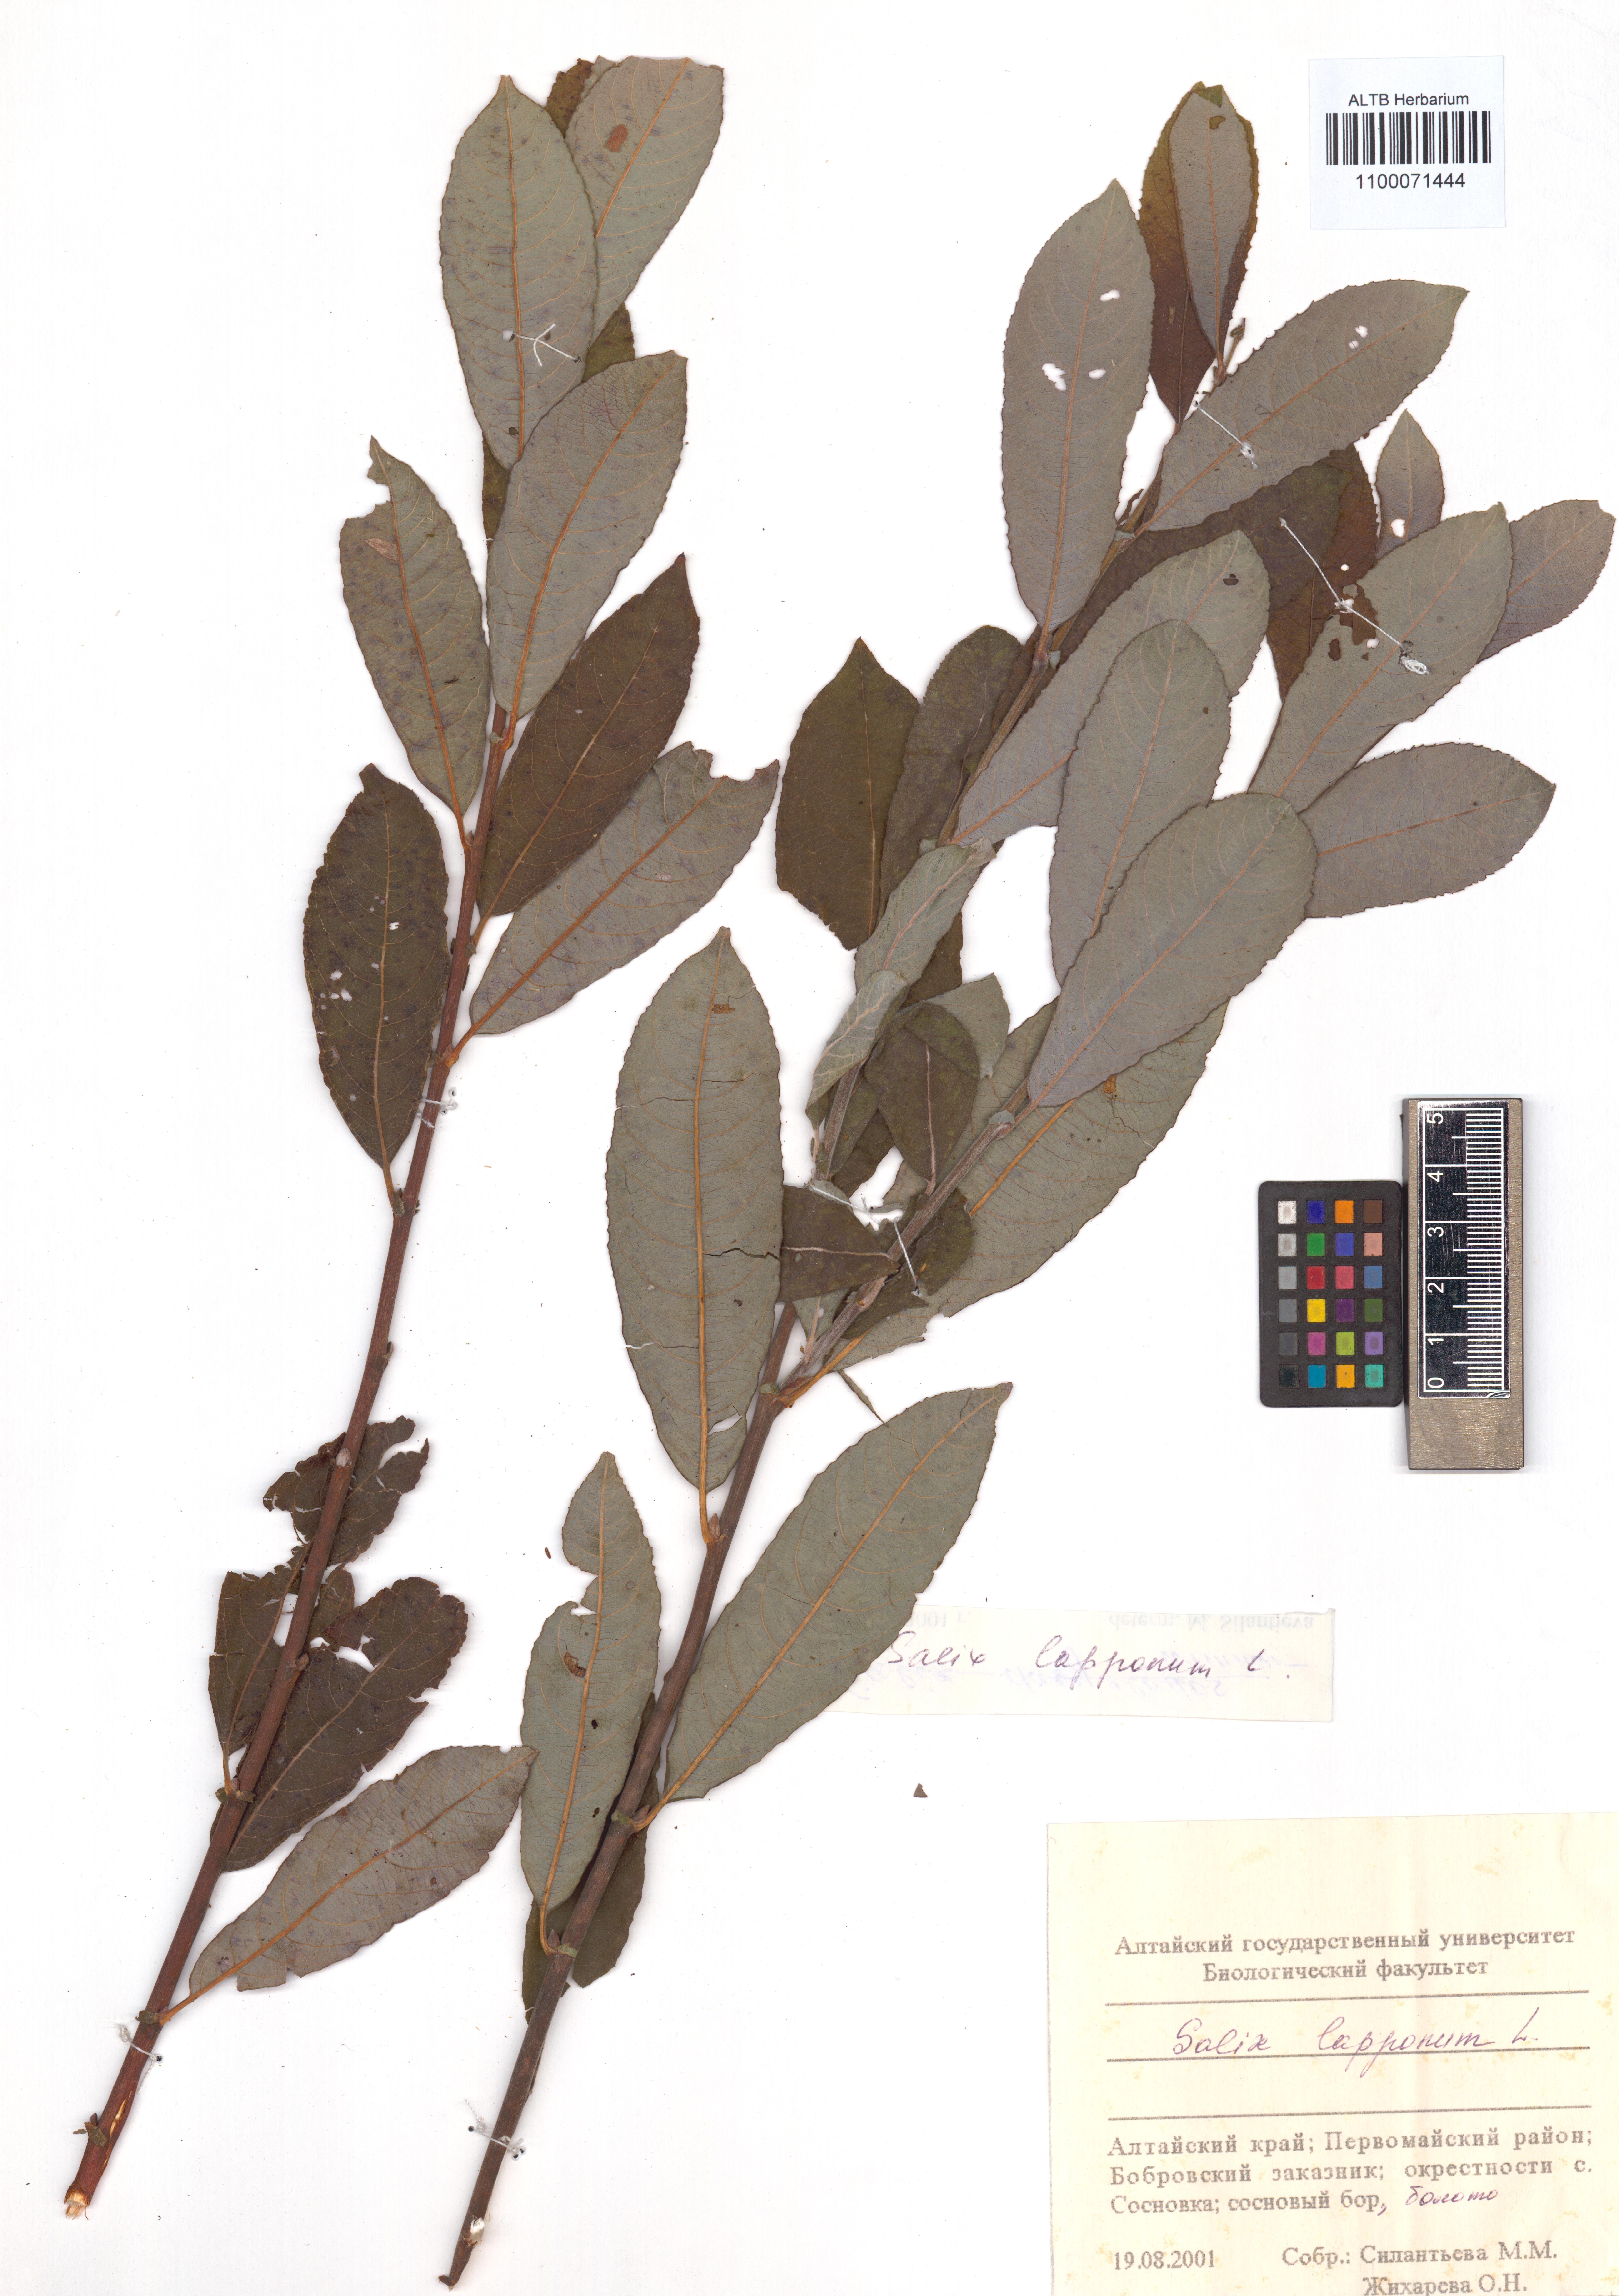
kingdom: Plantae
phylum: Tracheophyta
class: Magnoliopsida
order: Malpighiales
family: Salicaceae
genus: Salix
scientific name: Salix lapponum
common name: Downy willow
